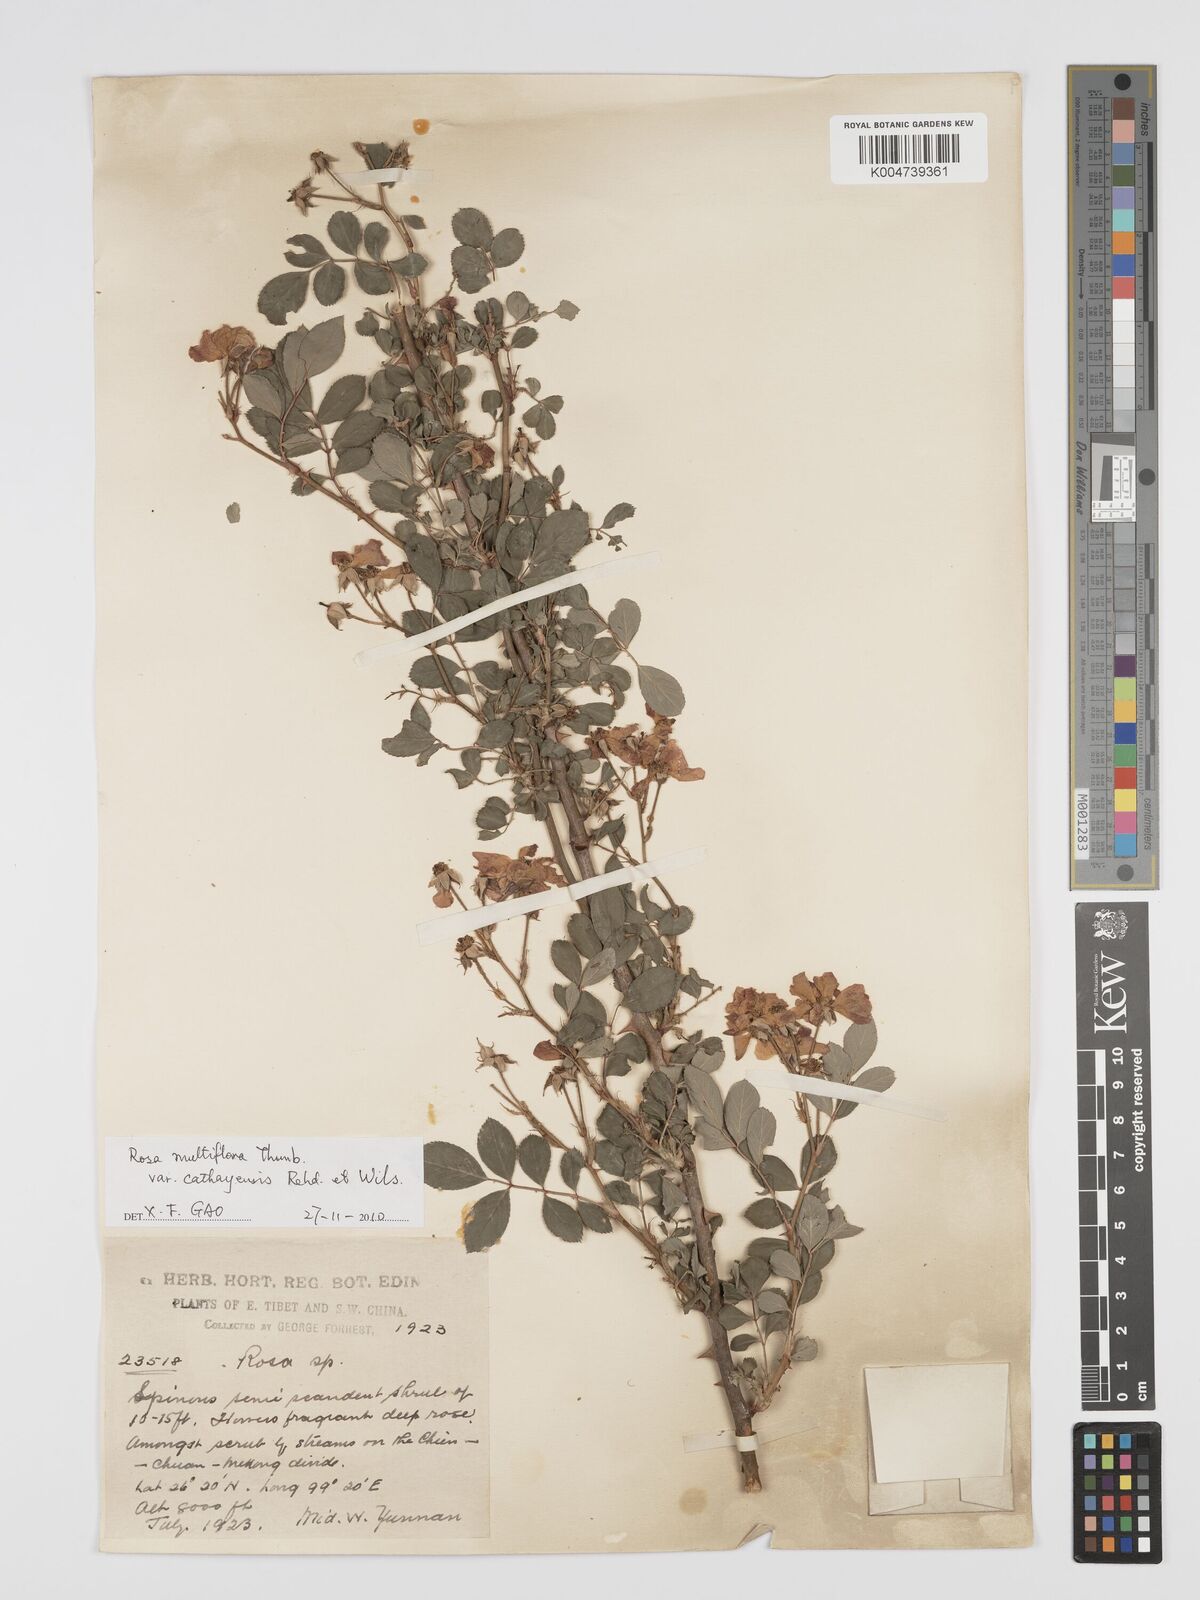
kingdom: Plantae
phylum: Tracheophyta
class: Magnoliopsida
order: Rosales
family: Rosaceae
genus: Rosa
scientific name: Rosa
